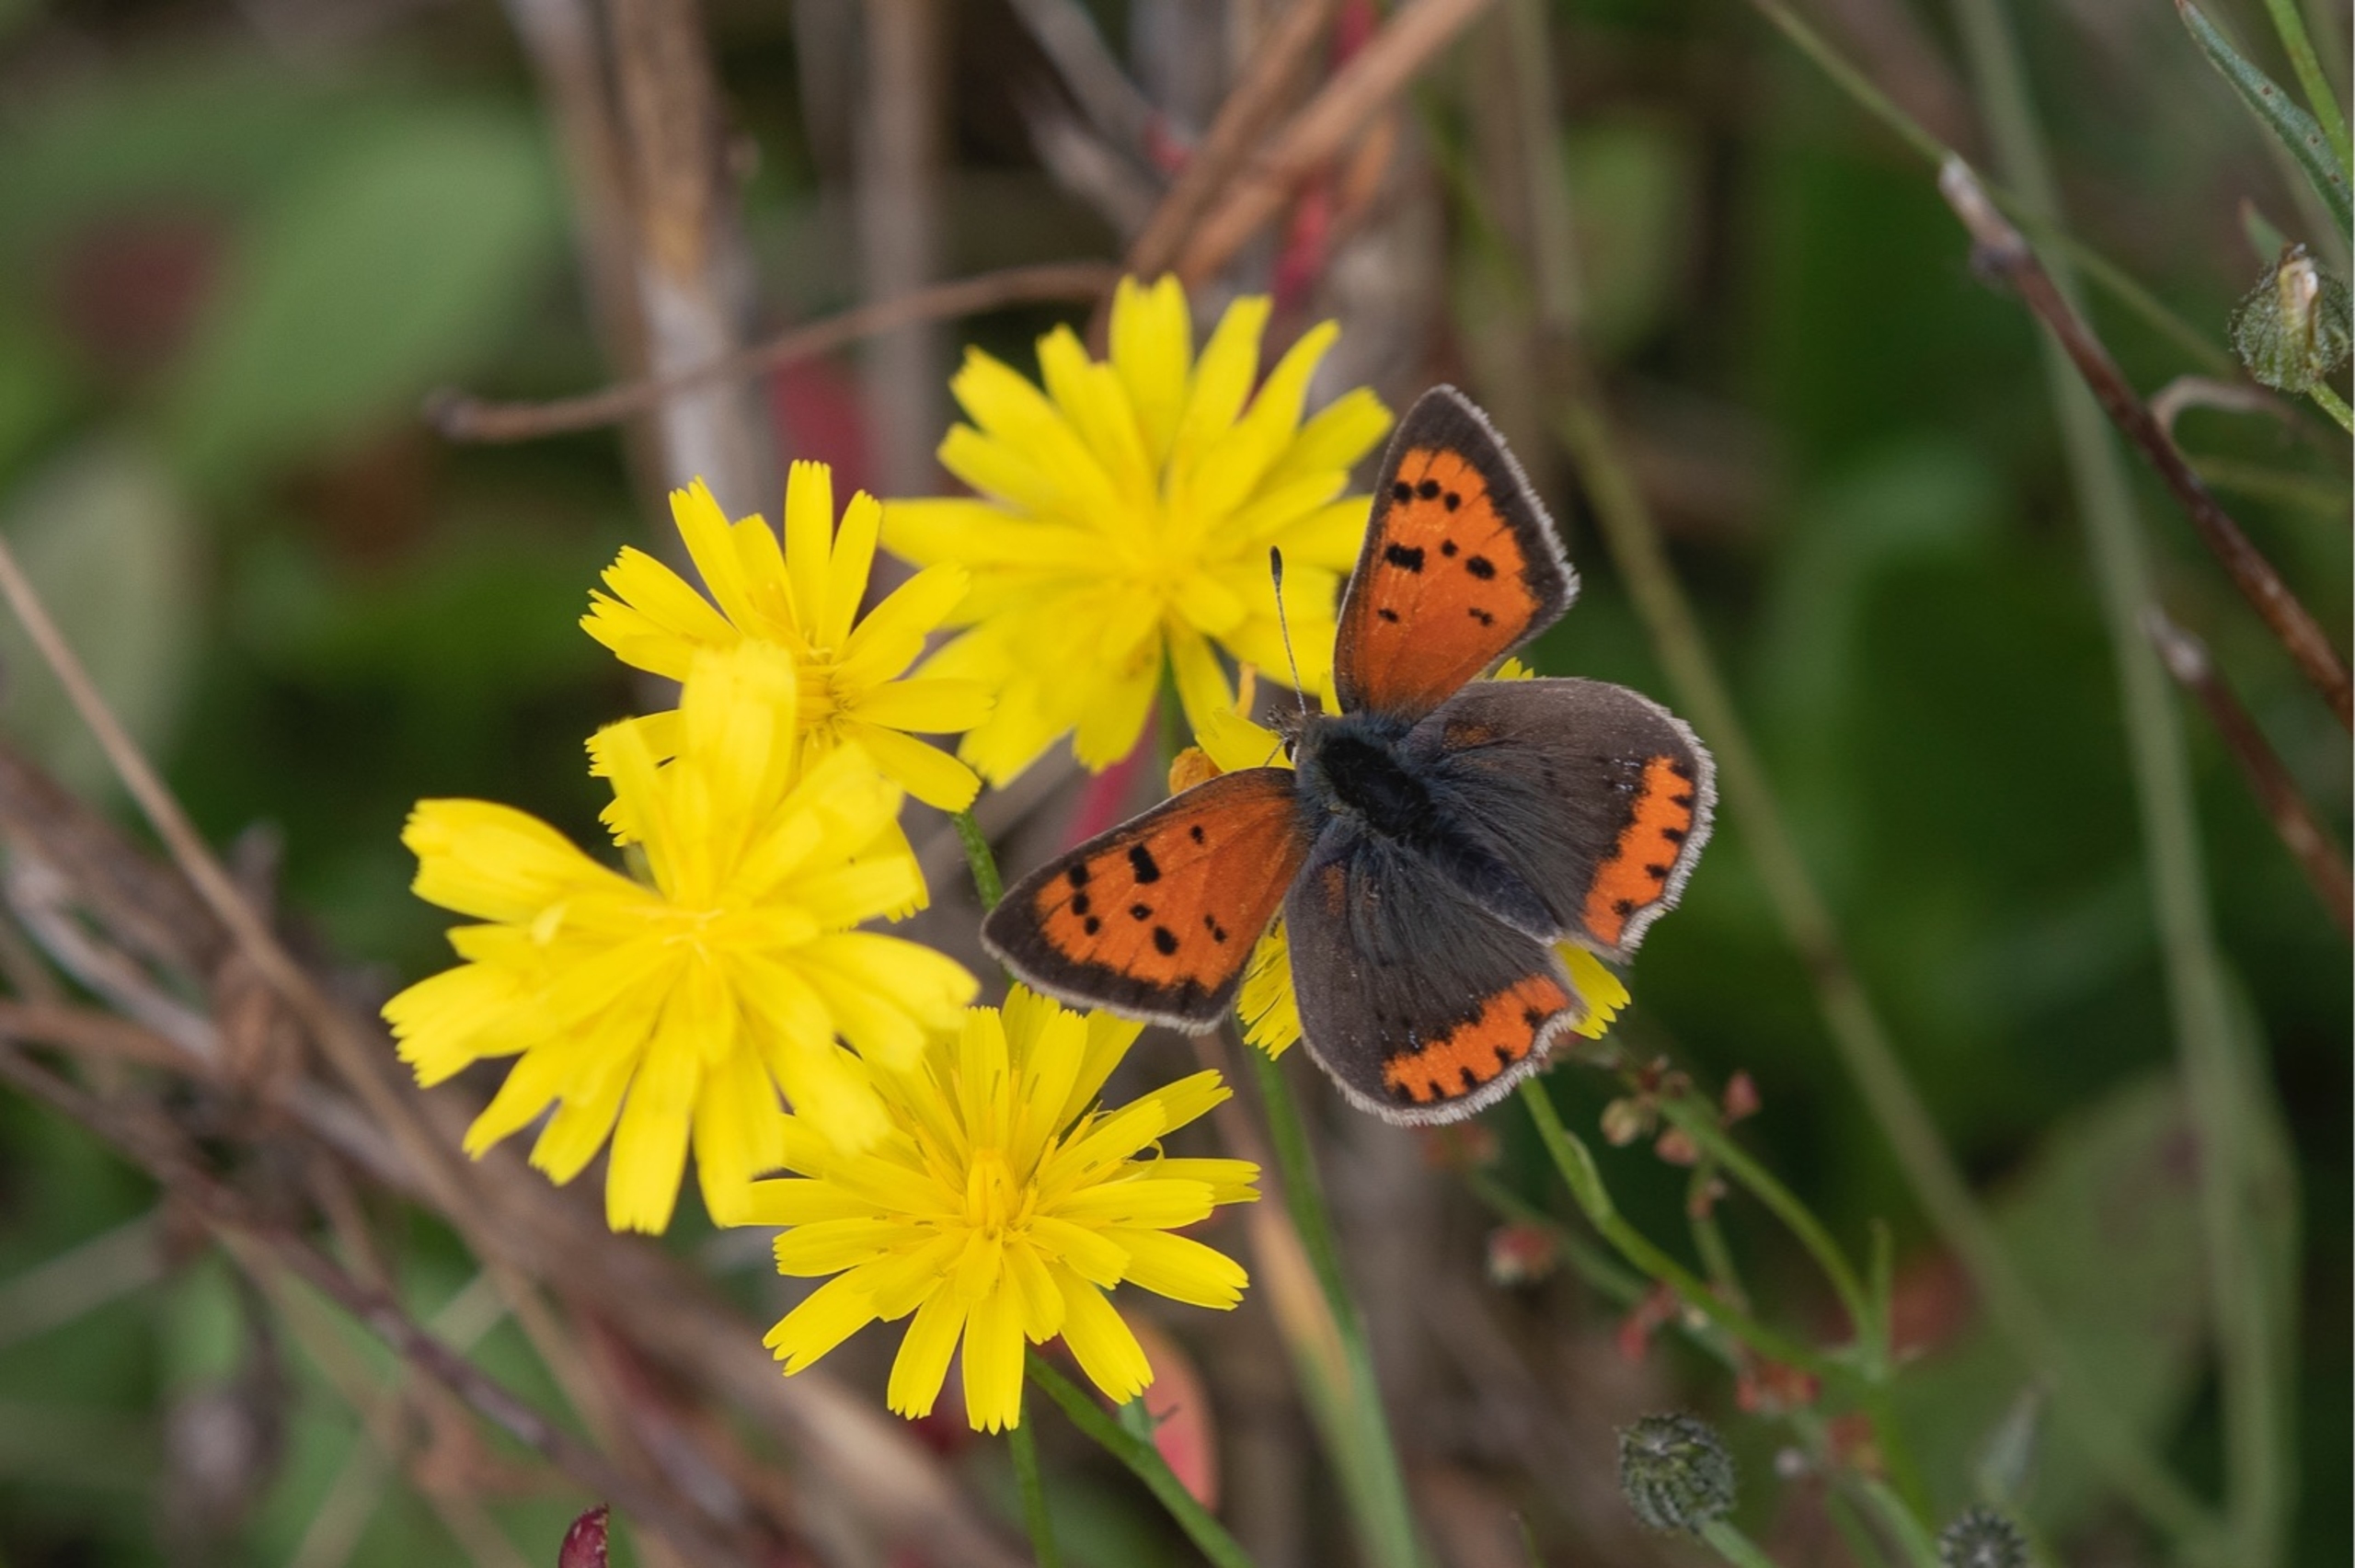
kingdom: Animalia
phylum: Arthropoda
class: Insecta
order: Lepidoptera
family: Lycaenidae
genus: Lycaena
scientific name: Lycaena phlaeas
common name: Lille ildfugl
